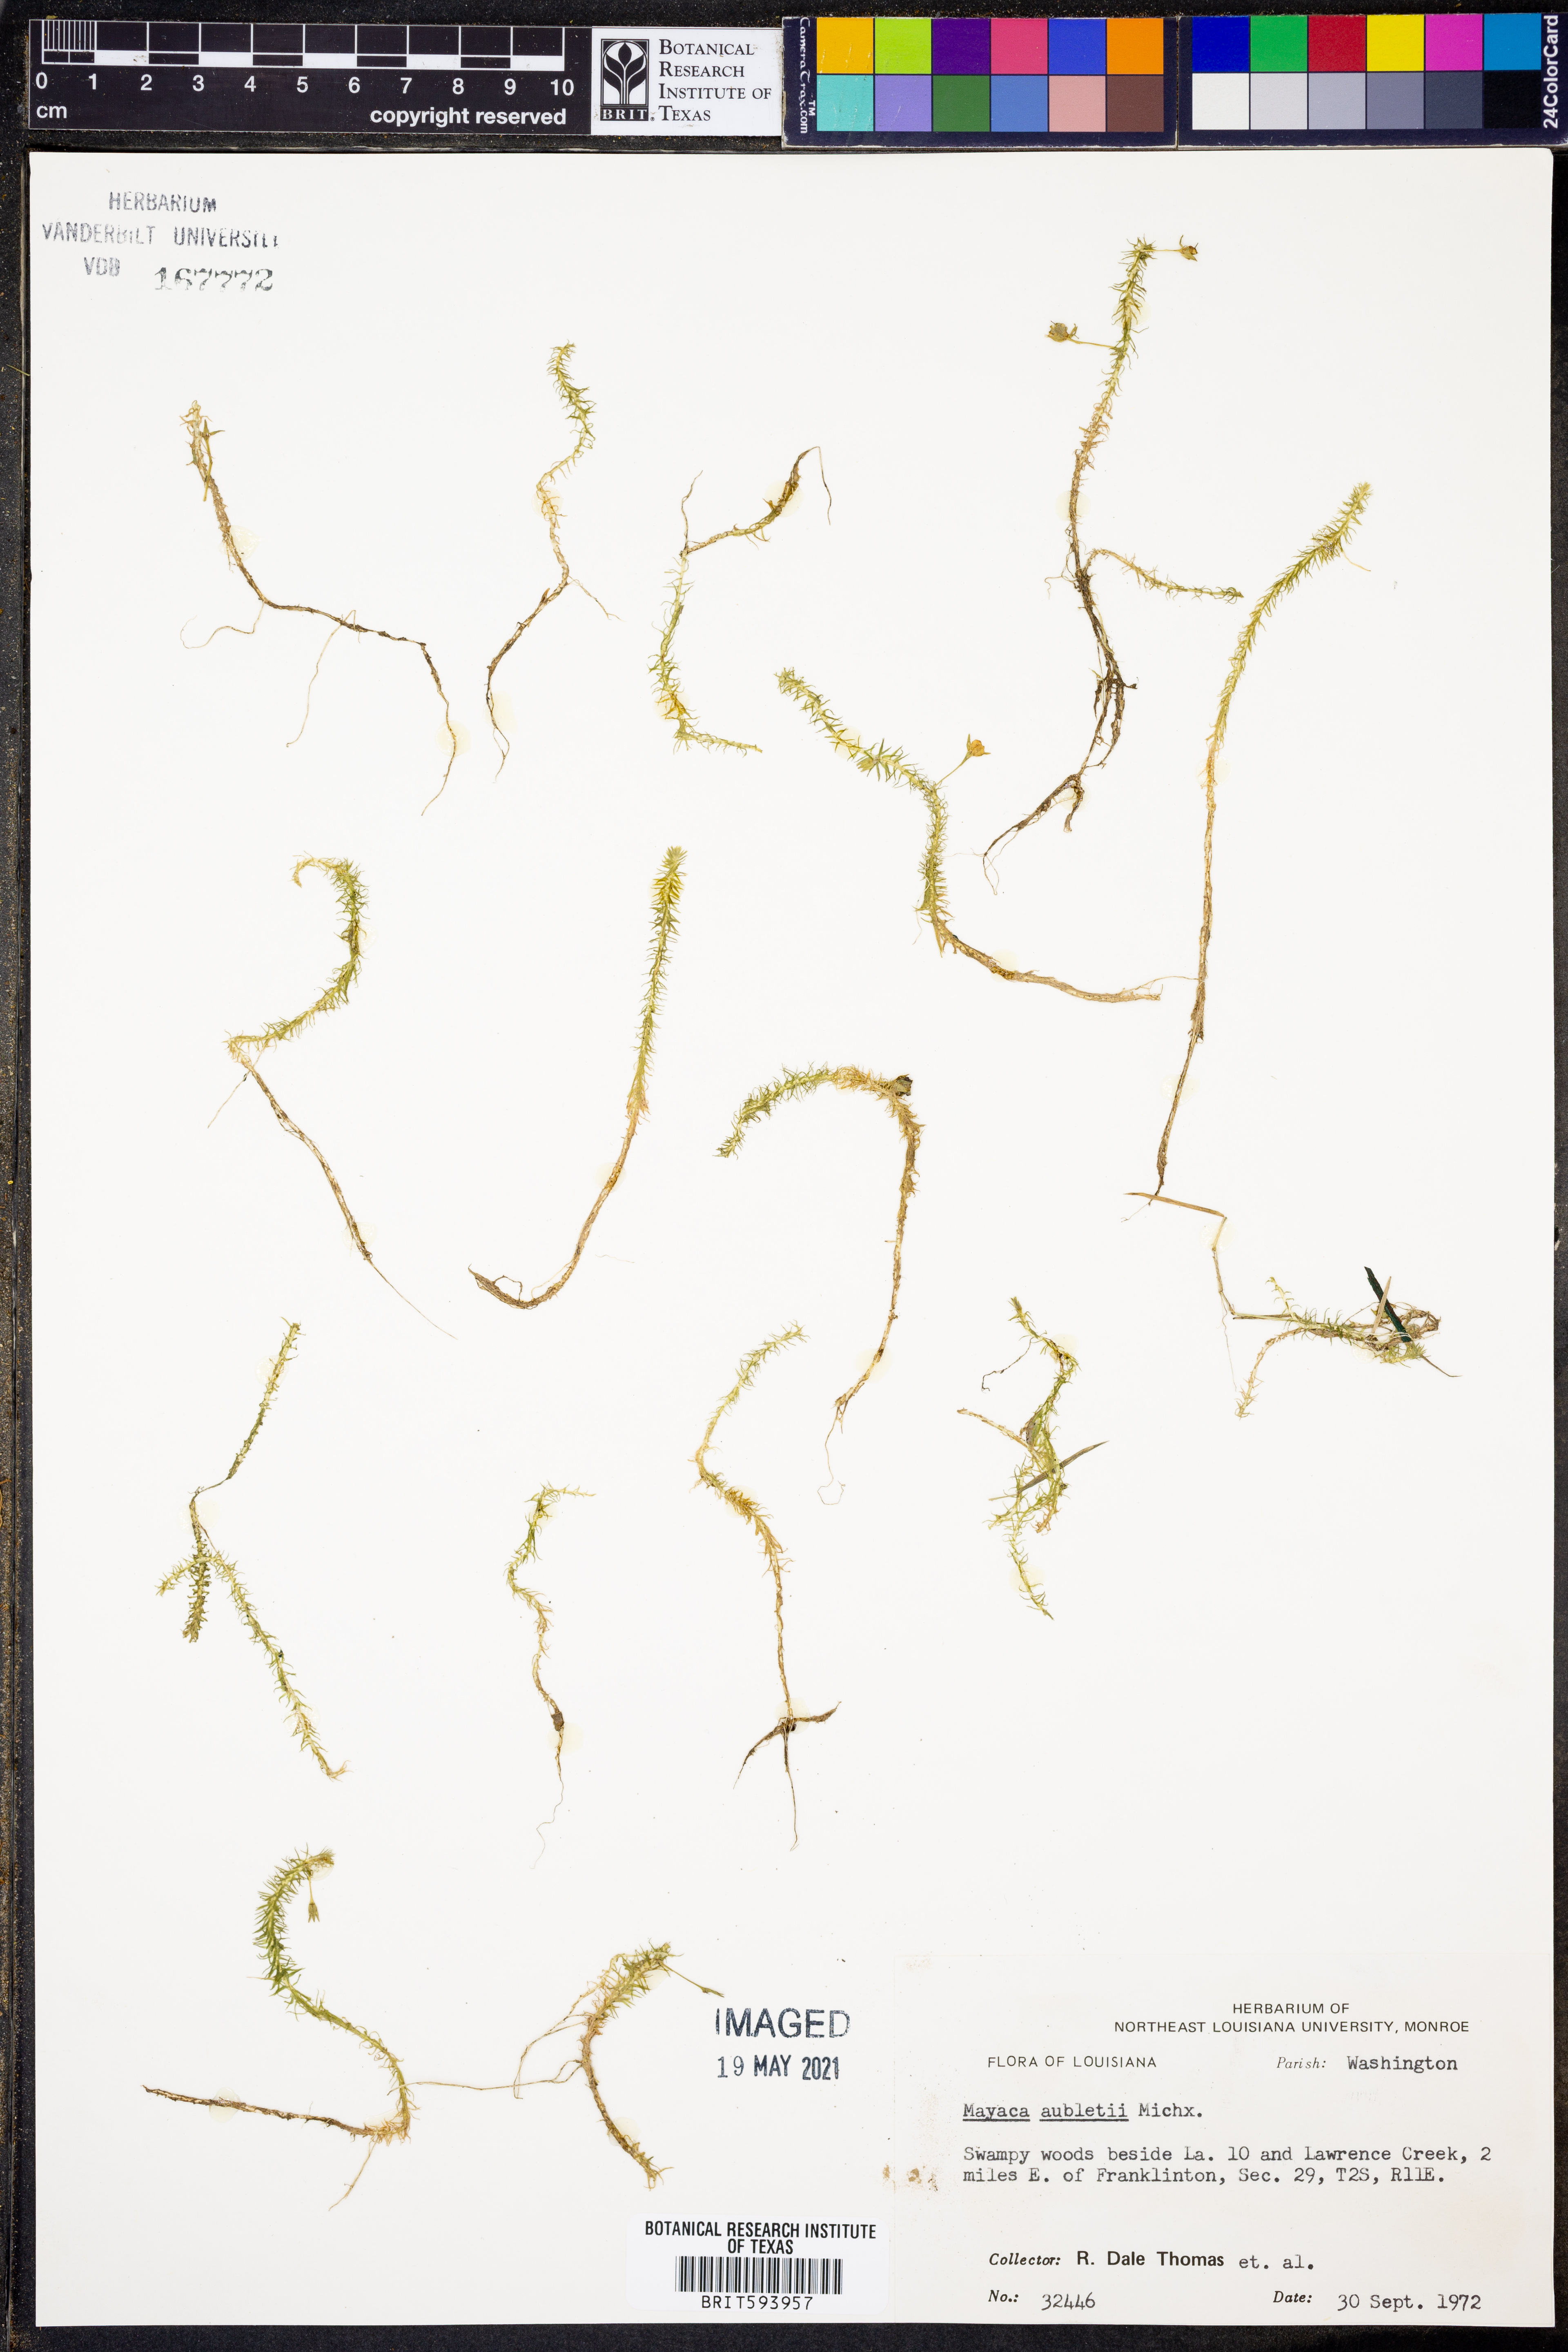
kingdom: Plantae
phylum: Tracheophyta
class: Liliopsida
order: Poales
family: Mayacaceae
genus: Mayaca
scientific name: Mayaca fluviatilis
